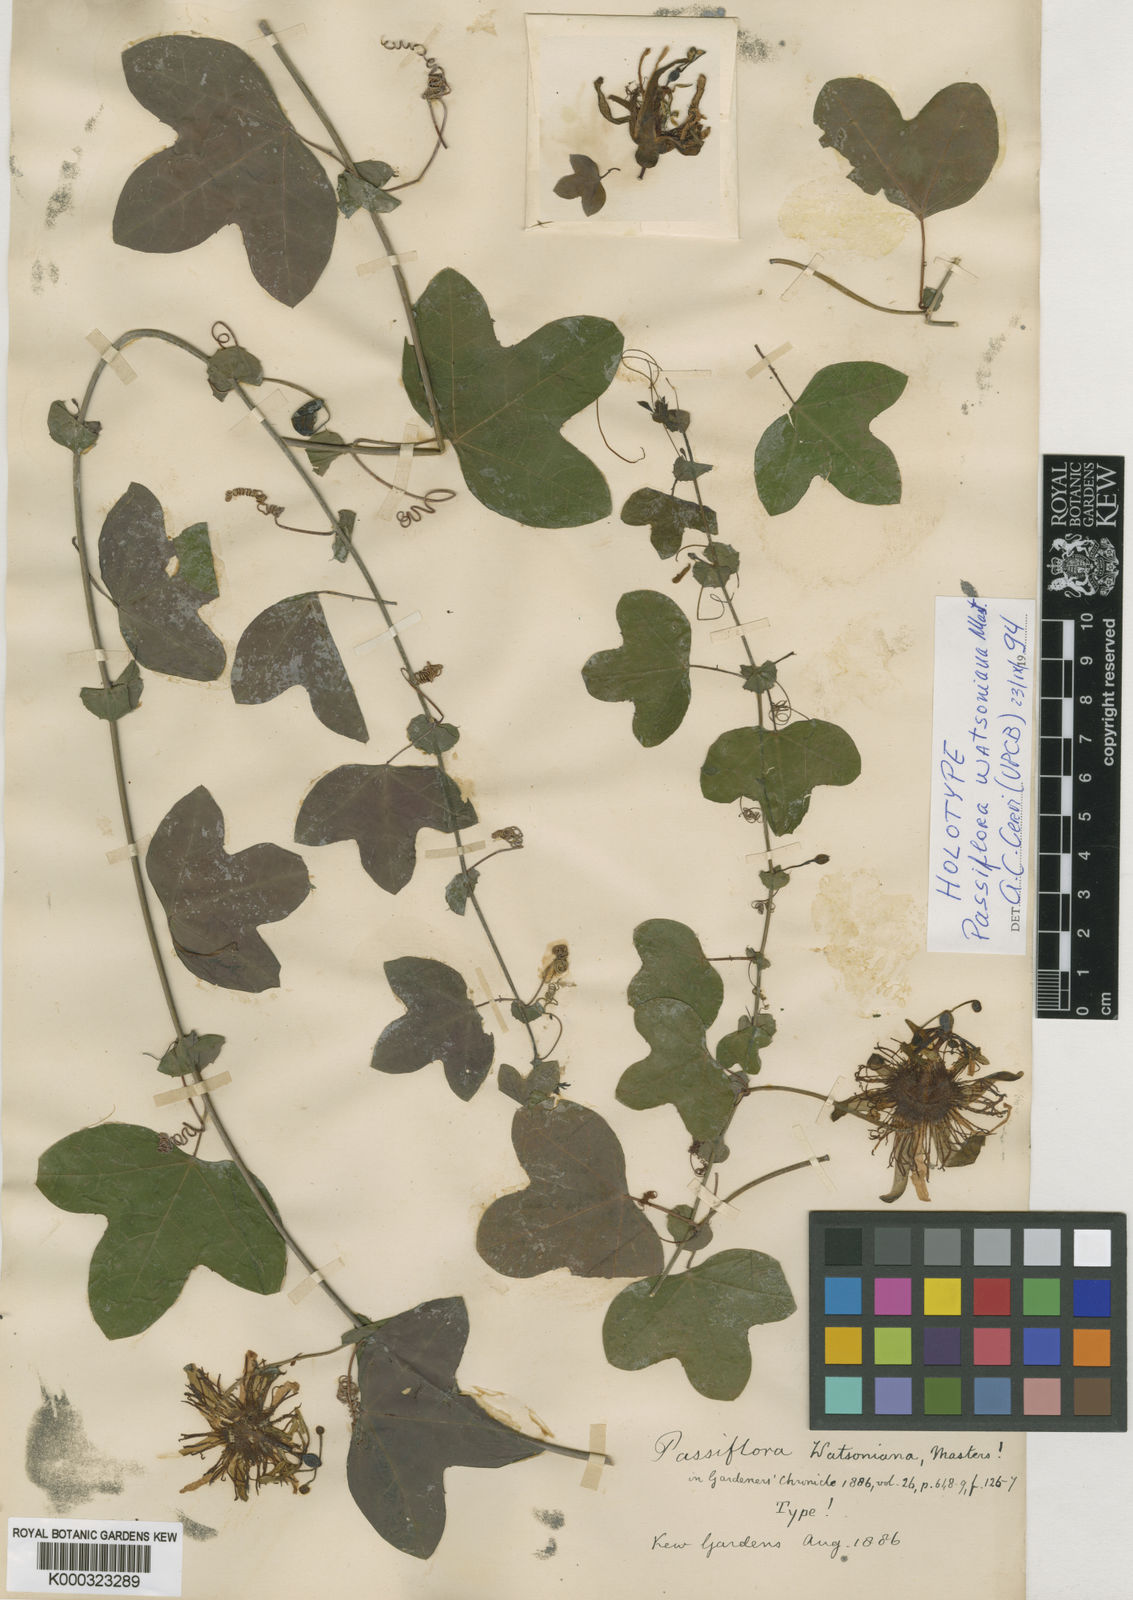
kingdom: Plantae
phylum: Tracheophyta
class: Magnoliopsida
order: Malpighiales
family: Passifloraceae
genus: Passiflora
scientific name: Passiflora watsoniana
